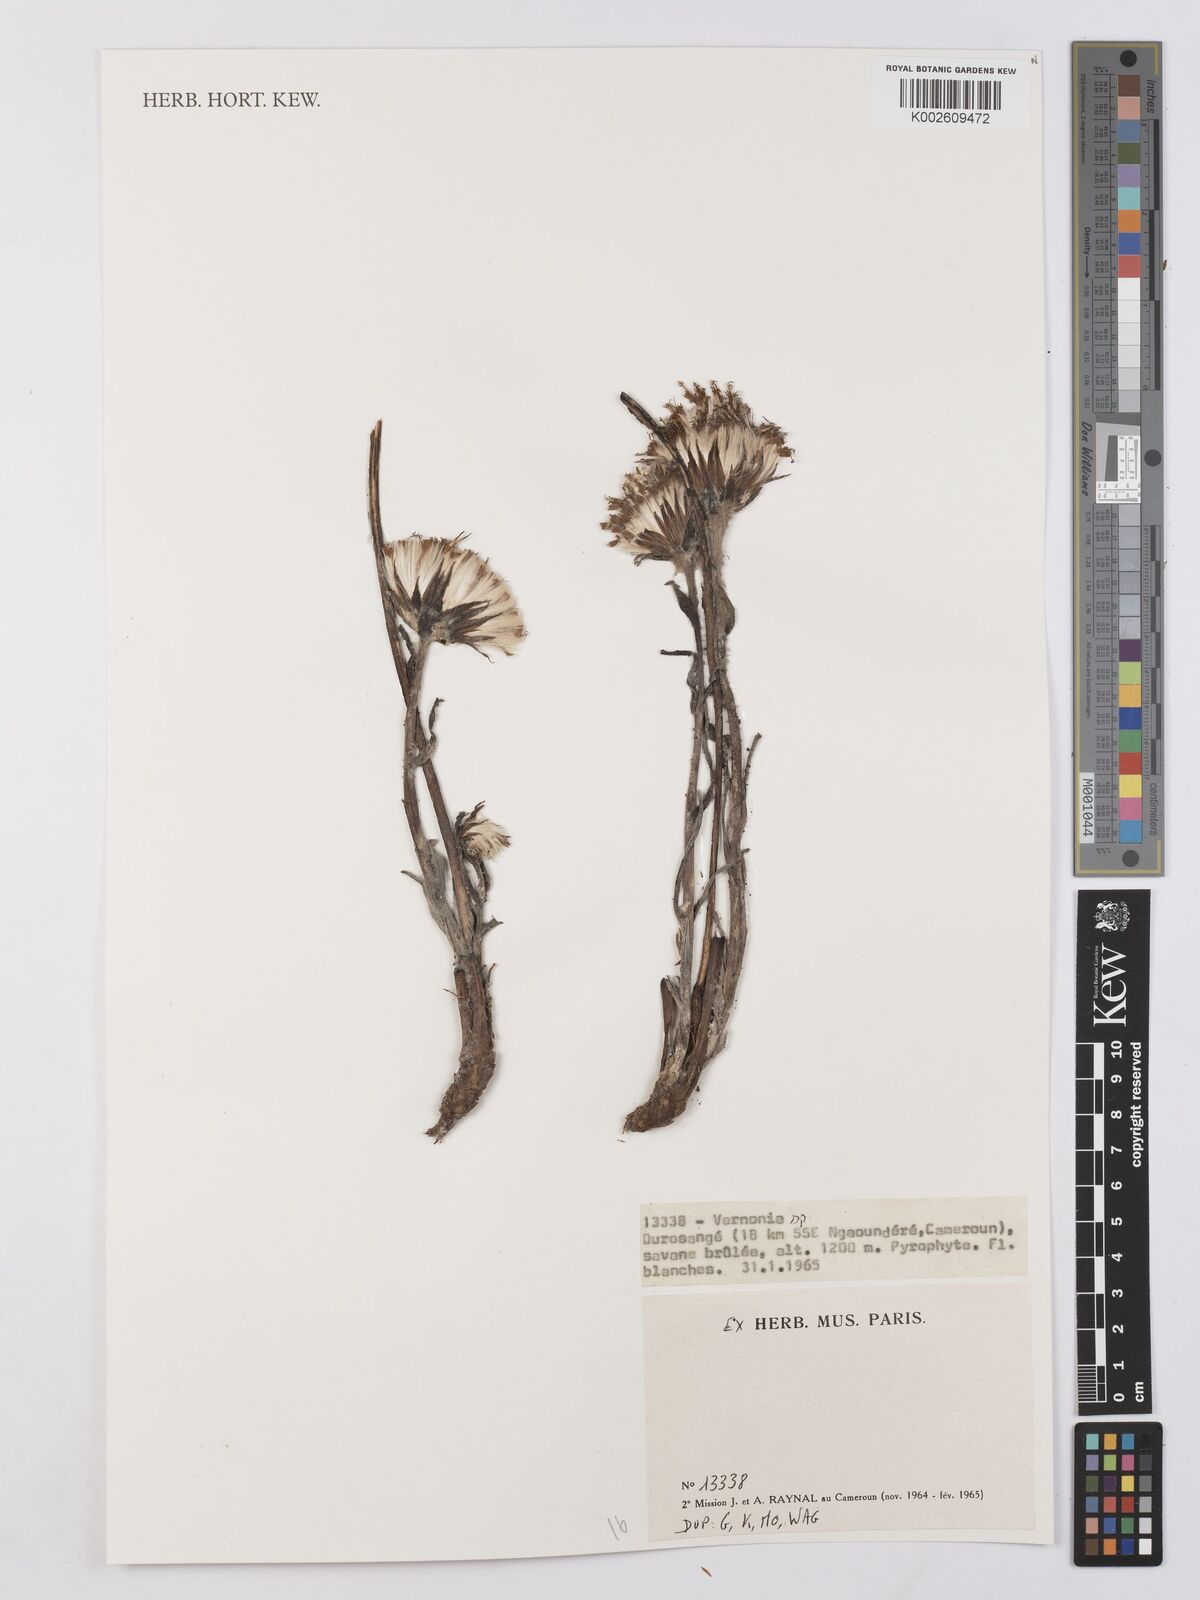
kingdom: Plantae
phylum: Tracheophyta
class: Magnoliopsida
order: Asterales
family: Asteraceae
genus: Vernonia
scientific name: Vernonia
